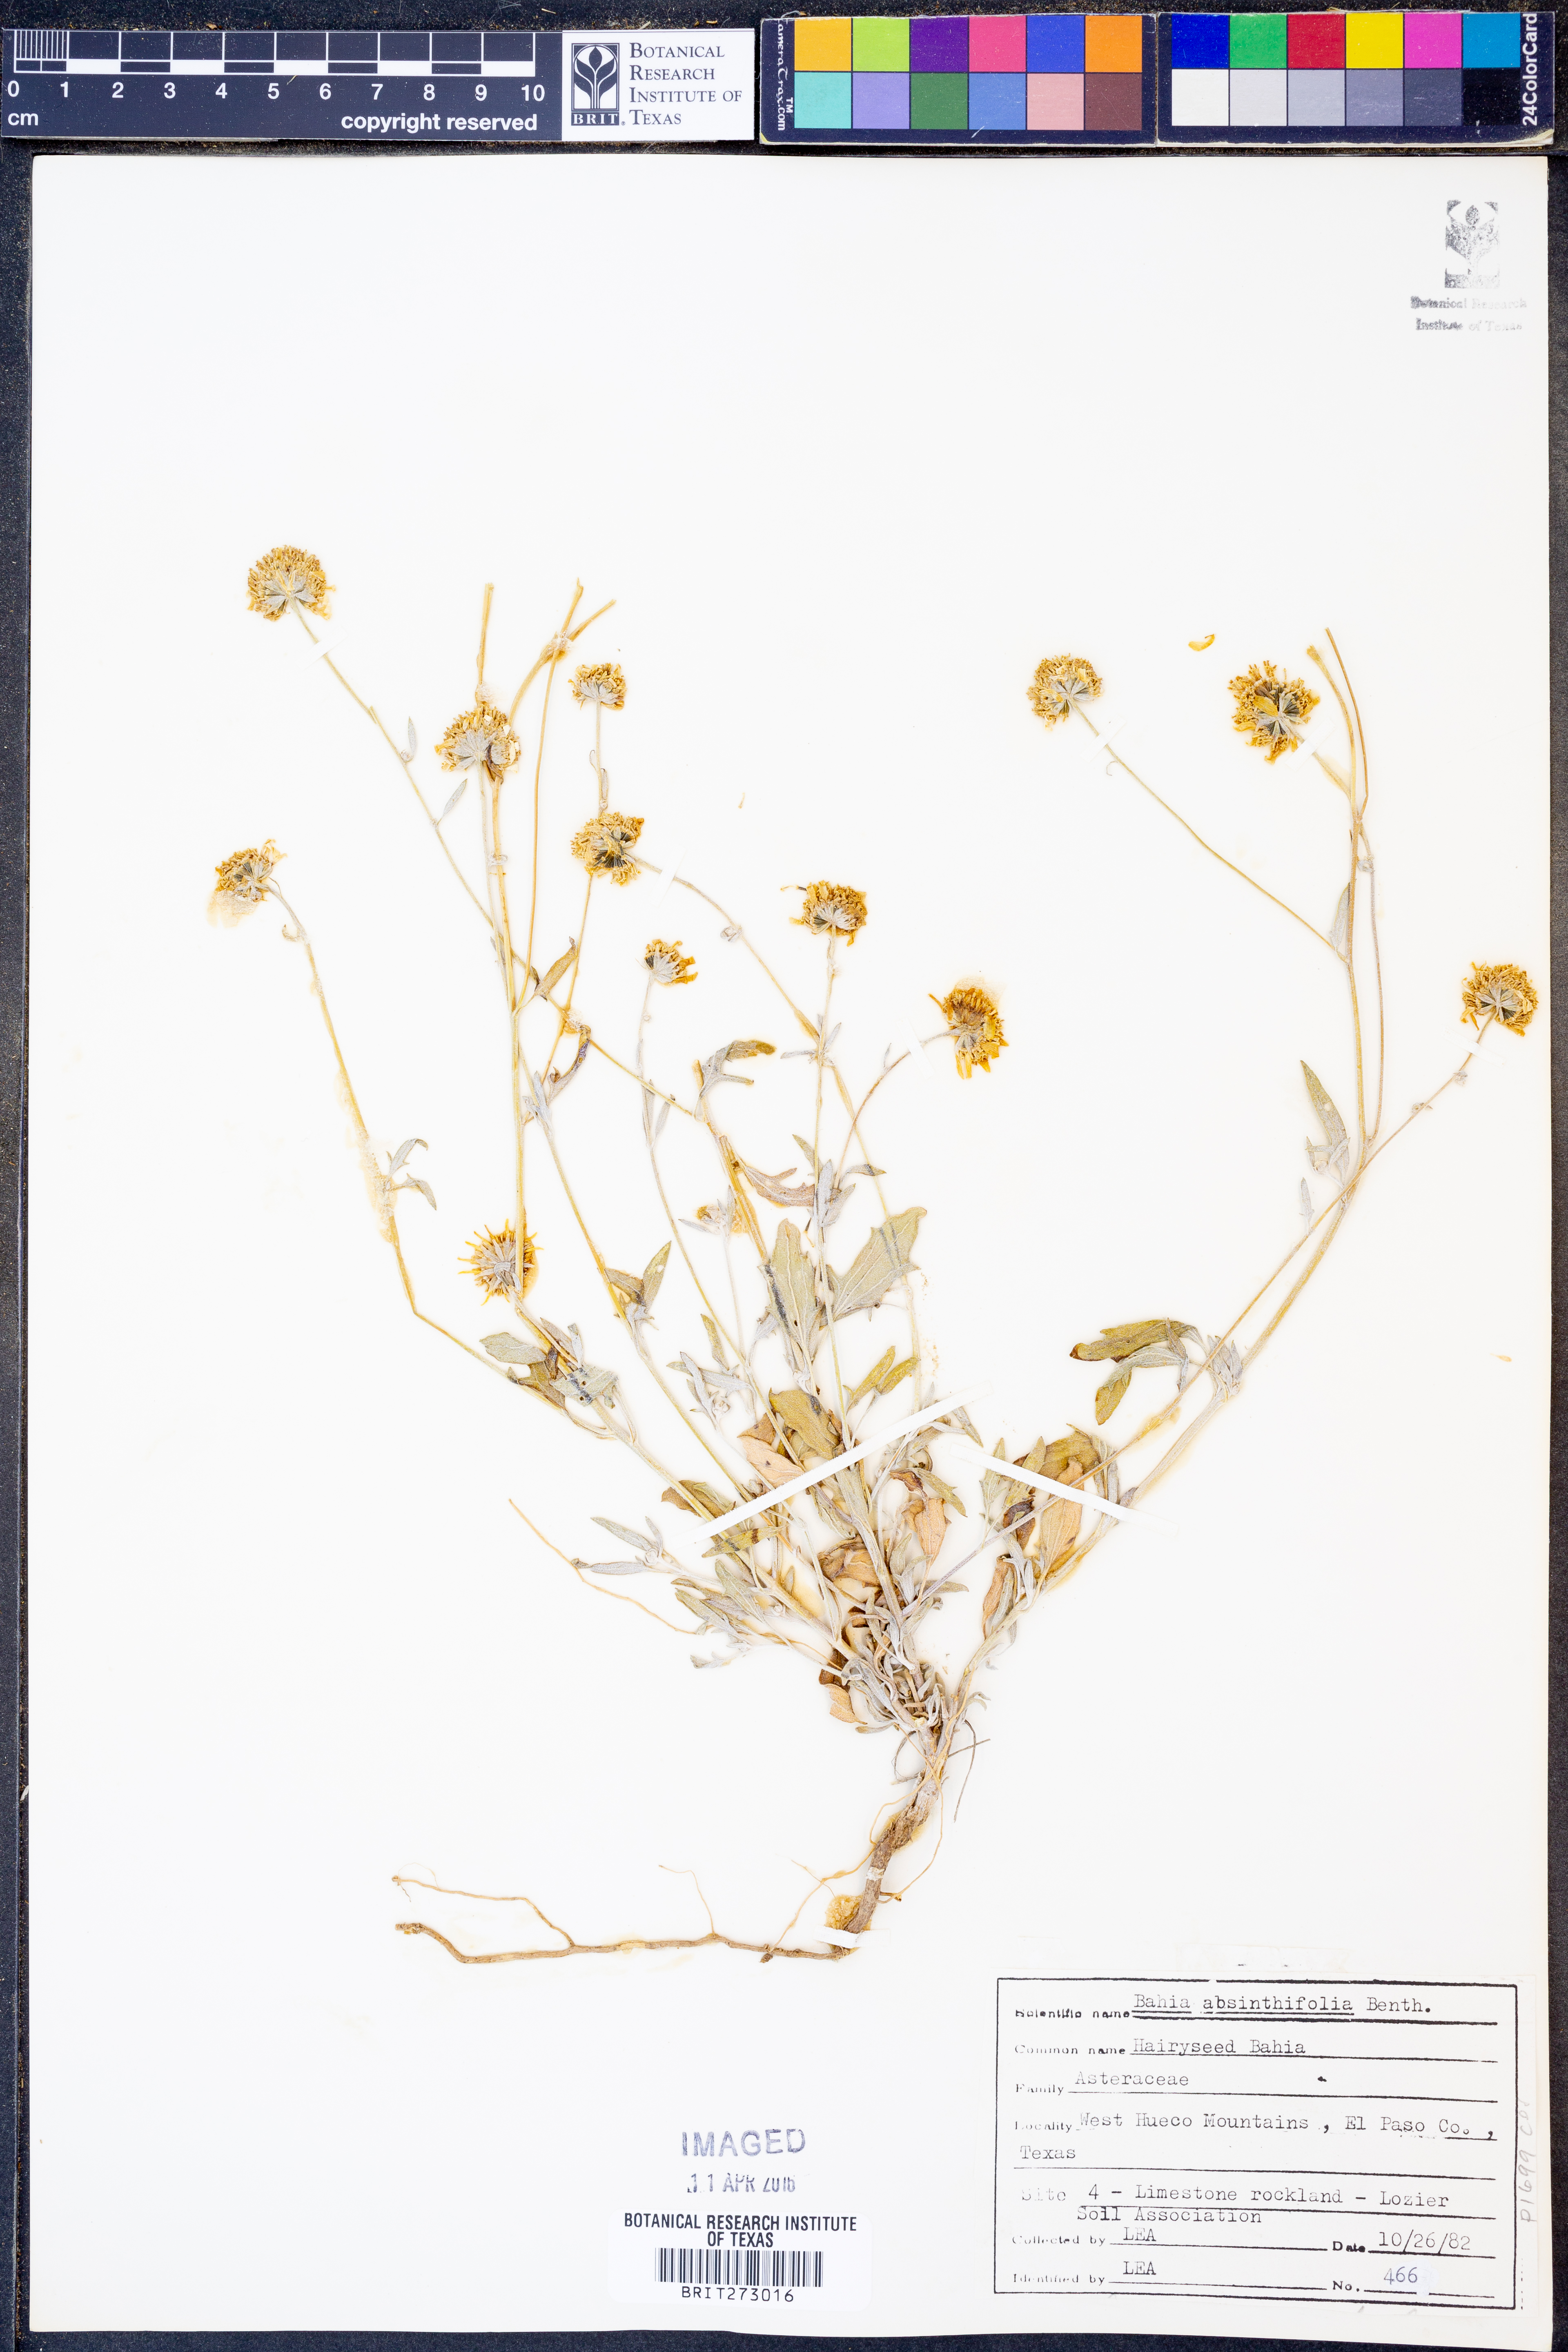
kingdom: Plantae
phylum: Tracheophyta
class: Magnoliopsida
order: Asterales
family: Asteraceae
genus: Picradeniopsis
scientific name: Picradeniopsis absinthifolia
